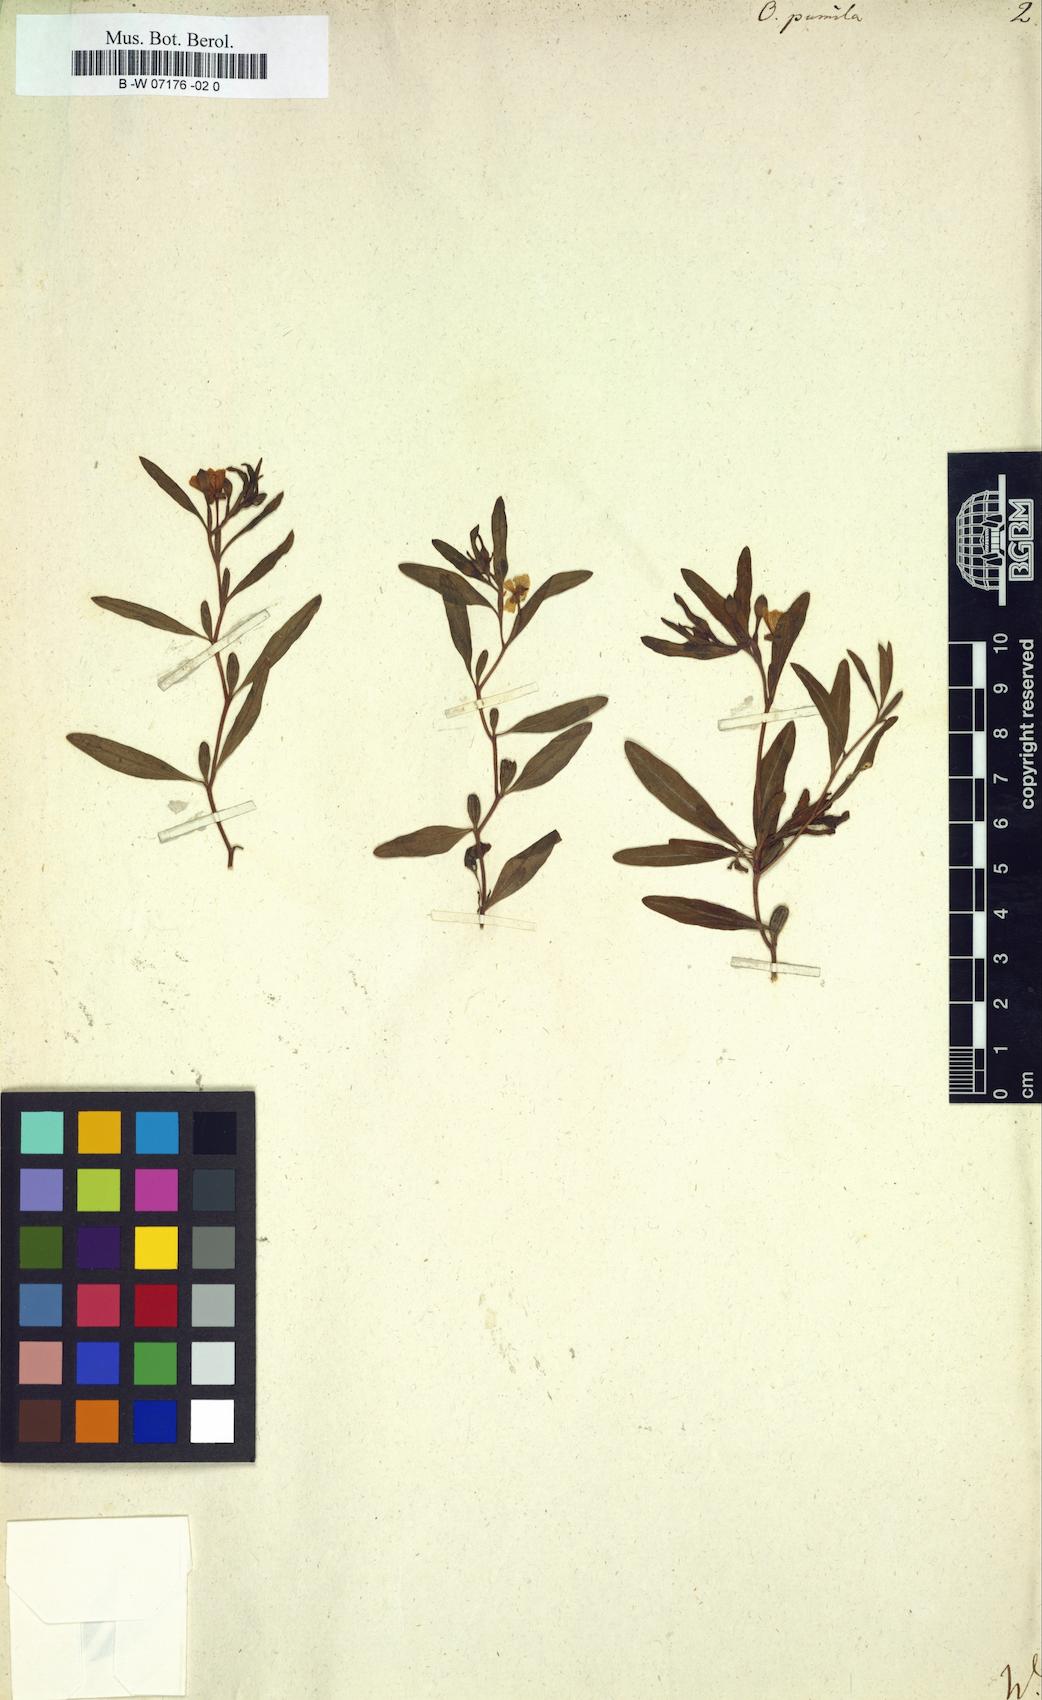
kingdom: Plantae
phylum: Tracheophyta
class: Magnoliopsida
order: Myrtales
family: Onagraceae
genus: Oenothera
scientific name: Oenothera perennis
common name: Small sundrops
